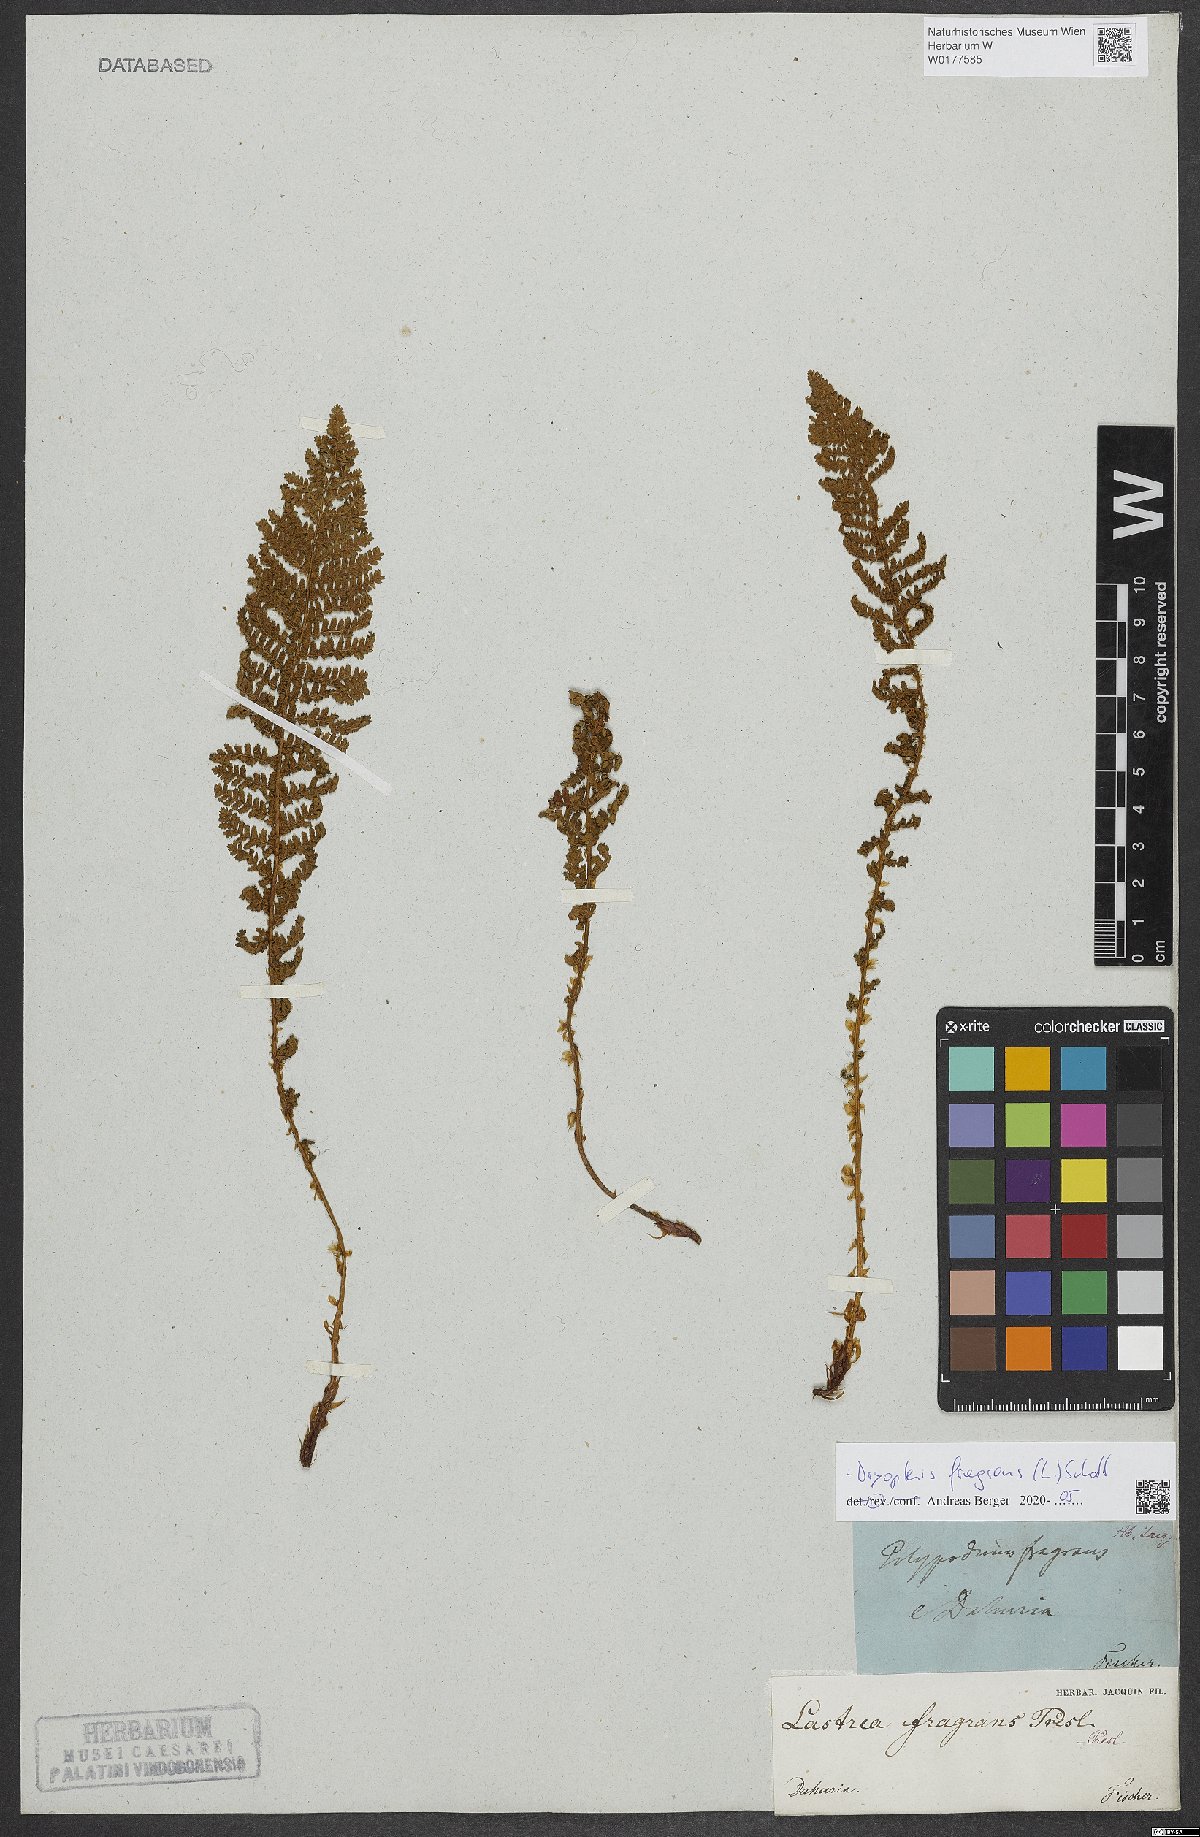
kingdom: Plantae
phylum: Tracheophyta
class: Polypodiopsida
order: Polypodiales
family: Dryopteridaceae
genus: Dryopteris
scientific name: Dryopteris fragrans
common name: Fragrant wood fern
